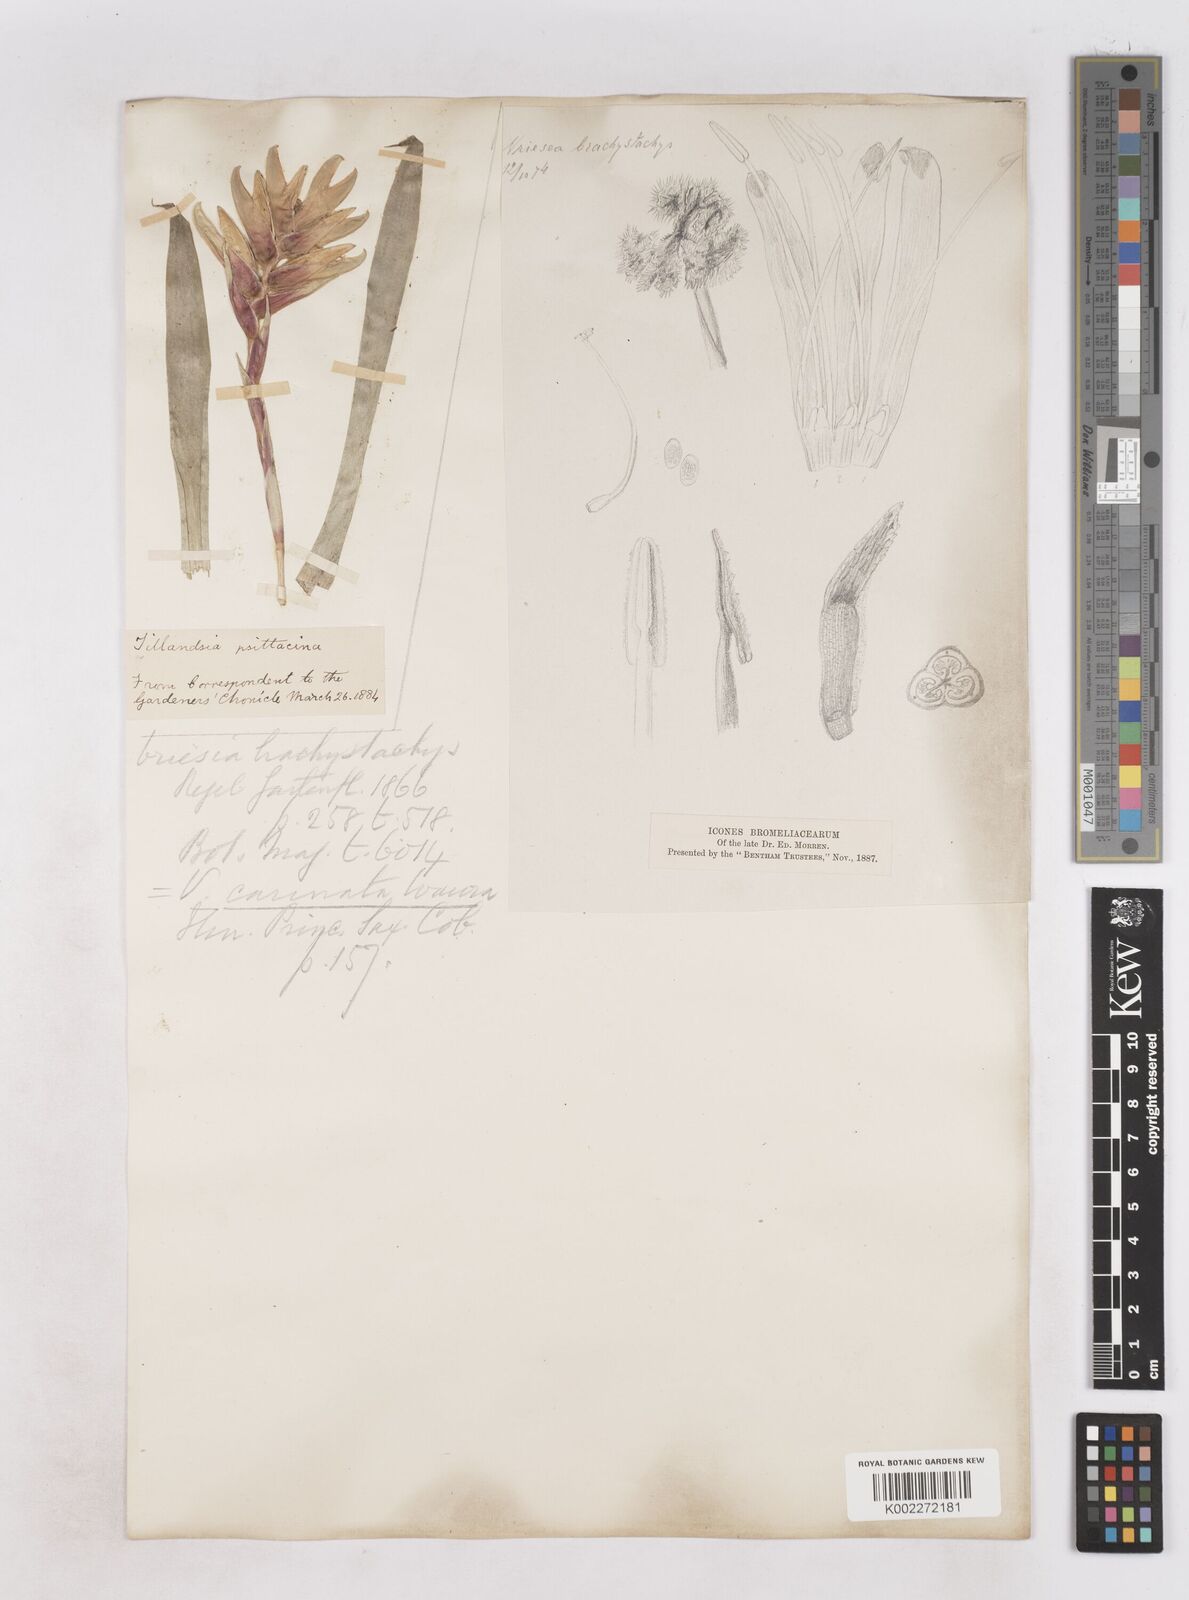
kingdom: Plantae
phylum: Tracheophyta
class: Liliopsida
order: Poales
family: Bromeliaceae
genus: Vriesea
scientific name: Vriesea carinata
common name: Lobster-claws
